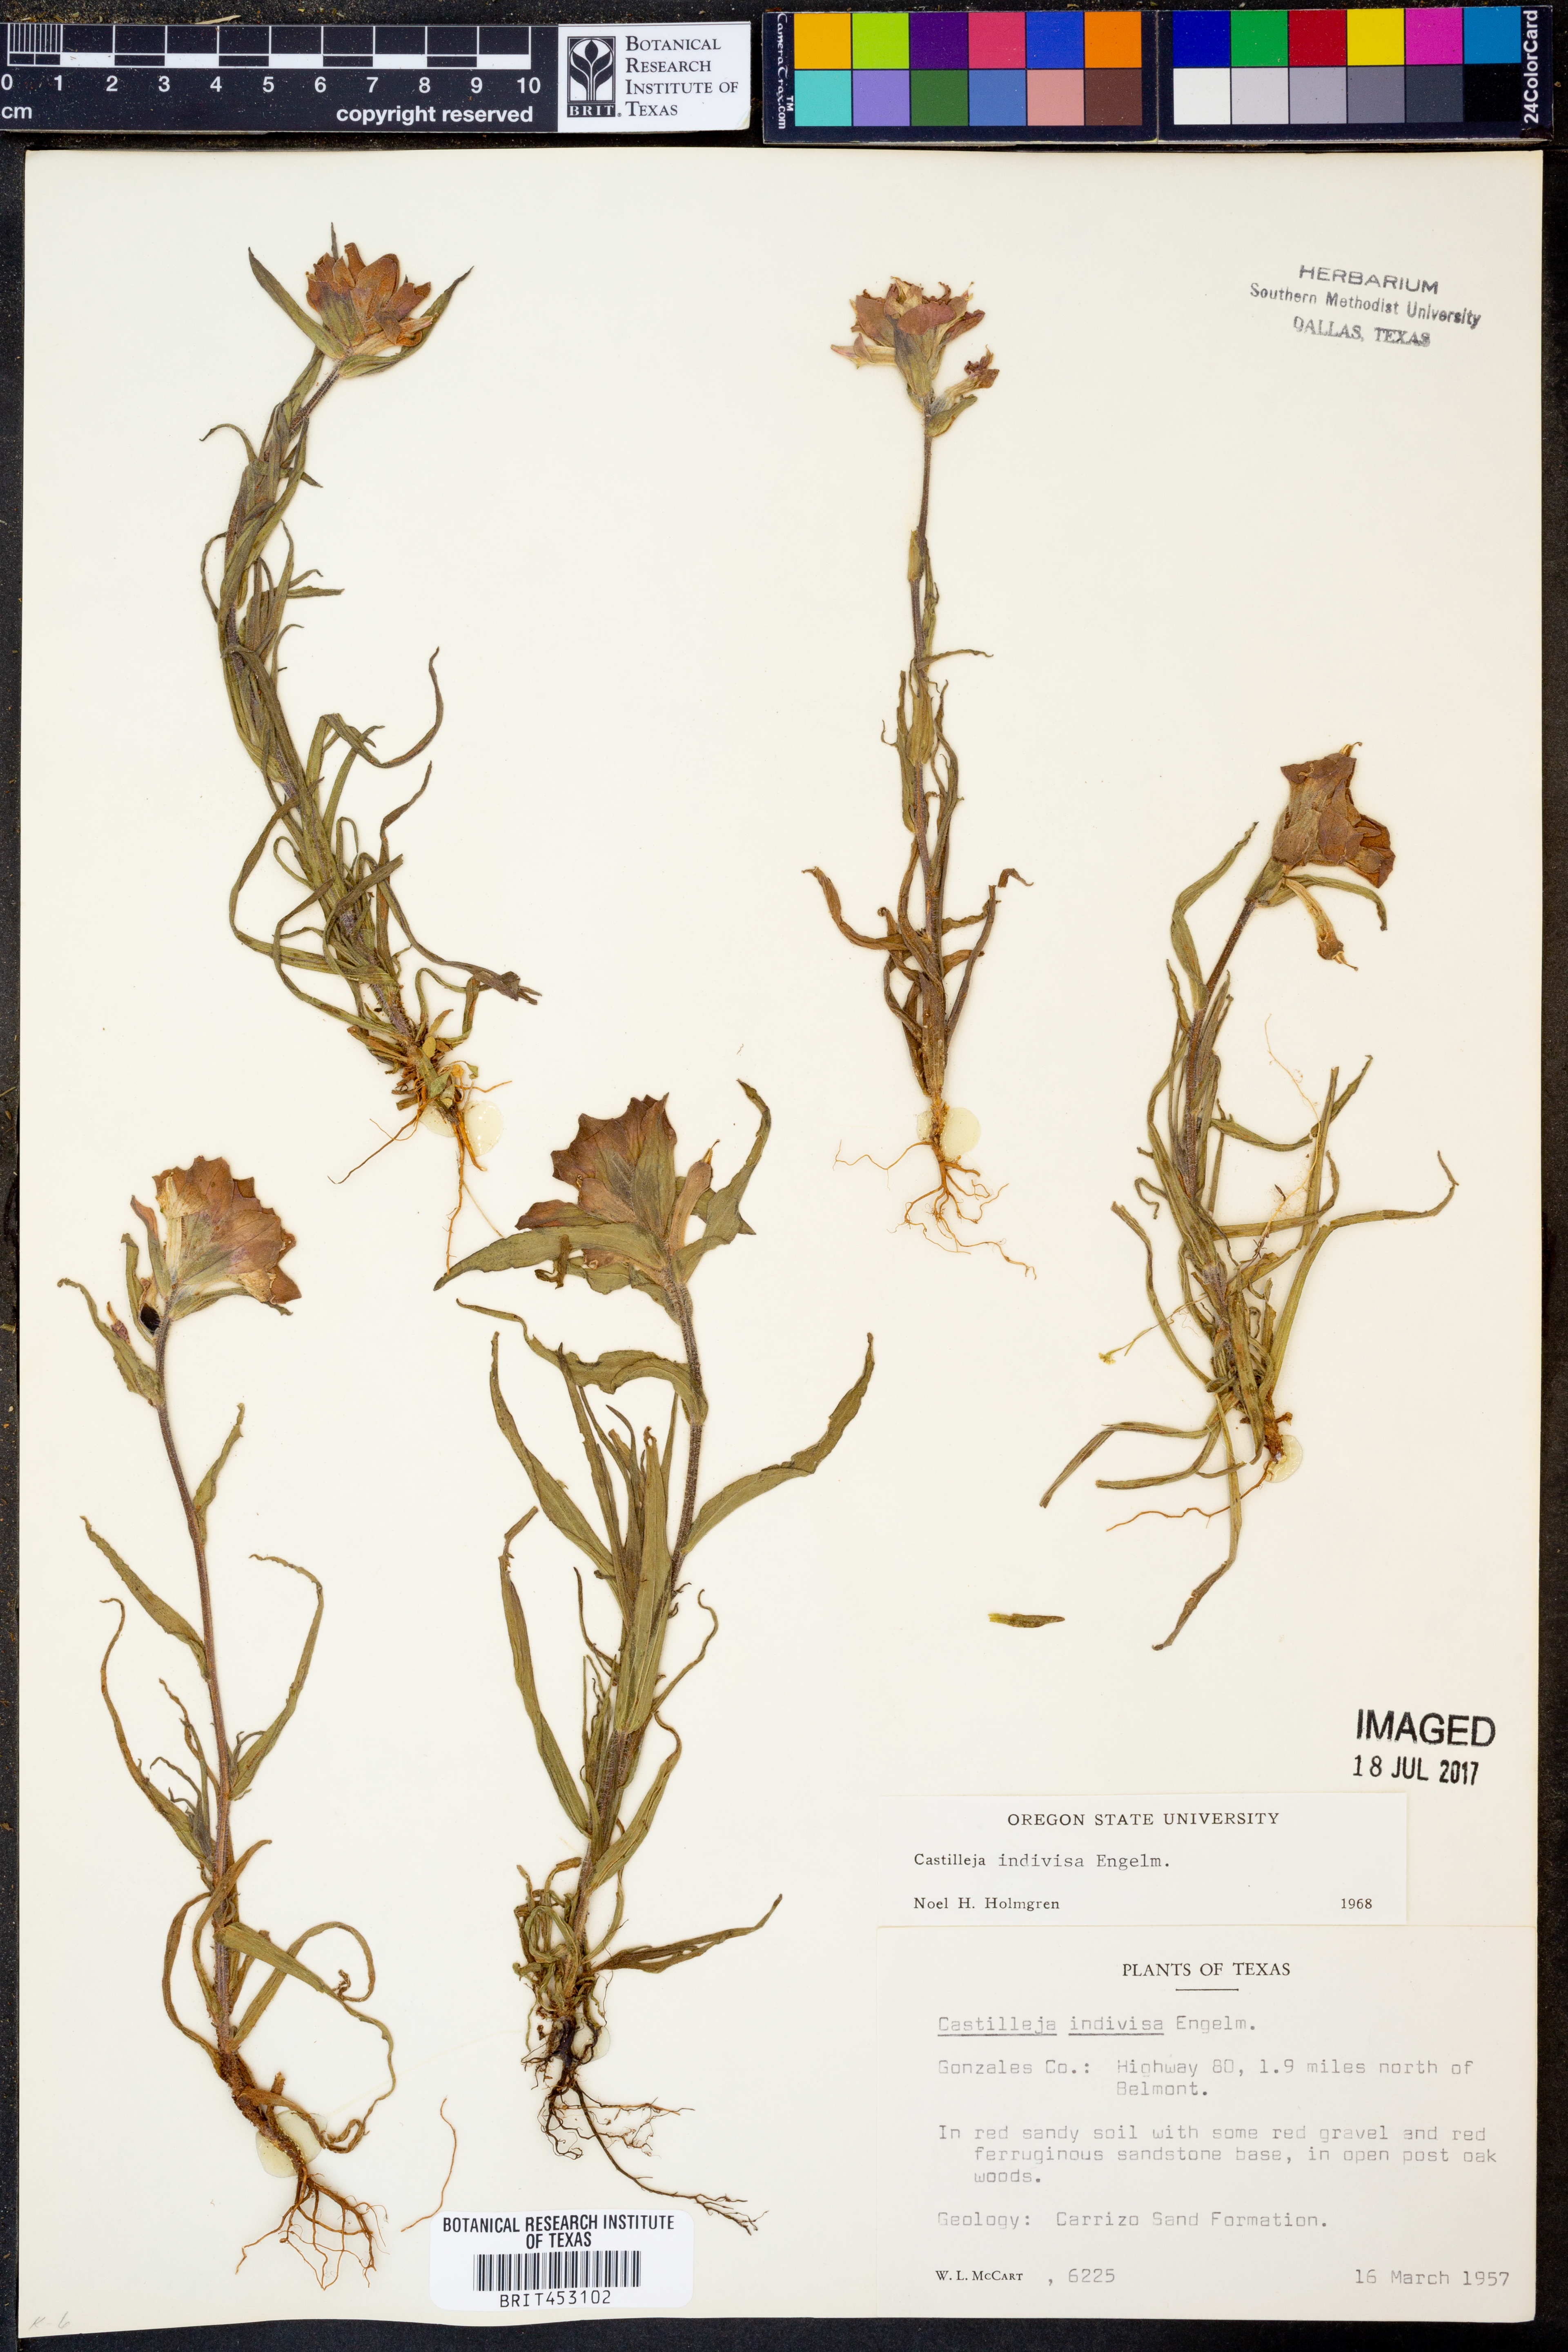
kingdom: Plantae
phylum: Tracheophyta
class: Magnoliopsida
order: Lamiales
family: Orobanchaceae
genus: Castilleja
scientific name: Castilleja indivisa
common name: Texas paintbrush
